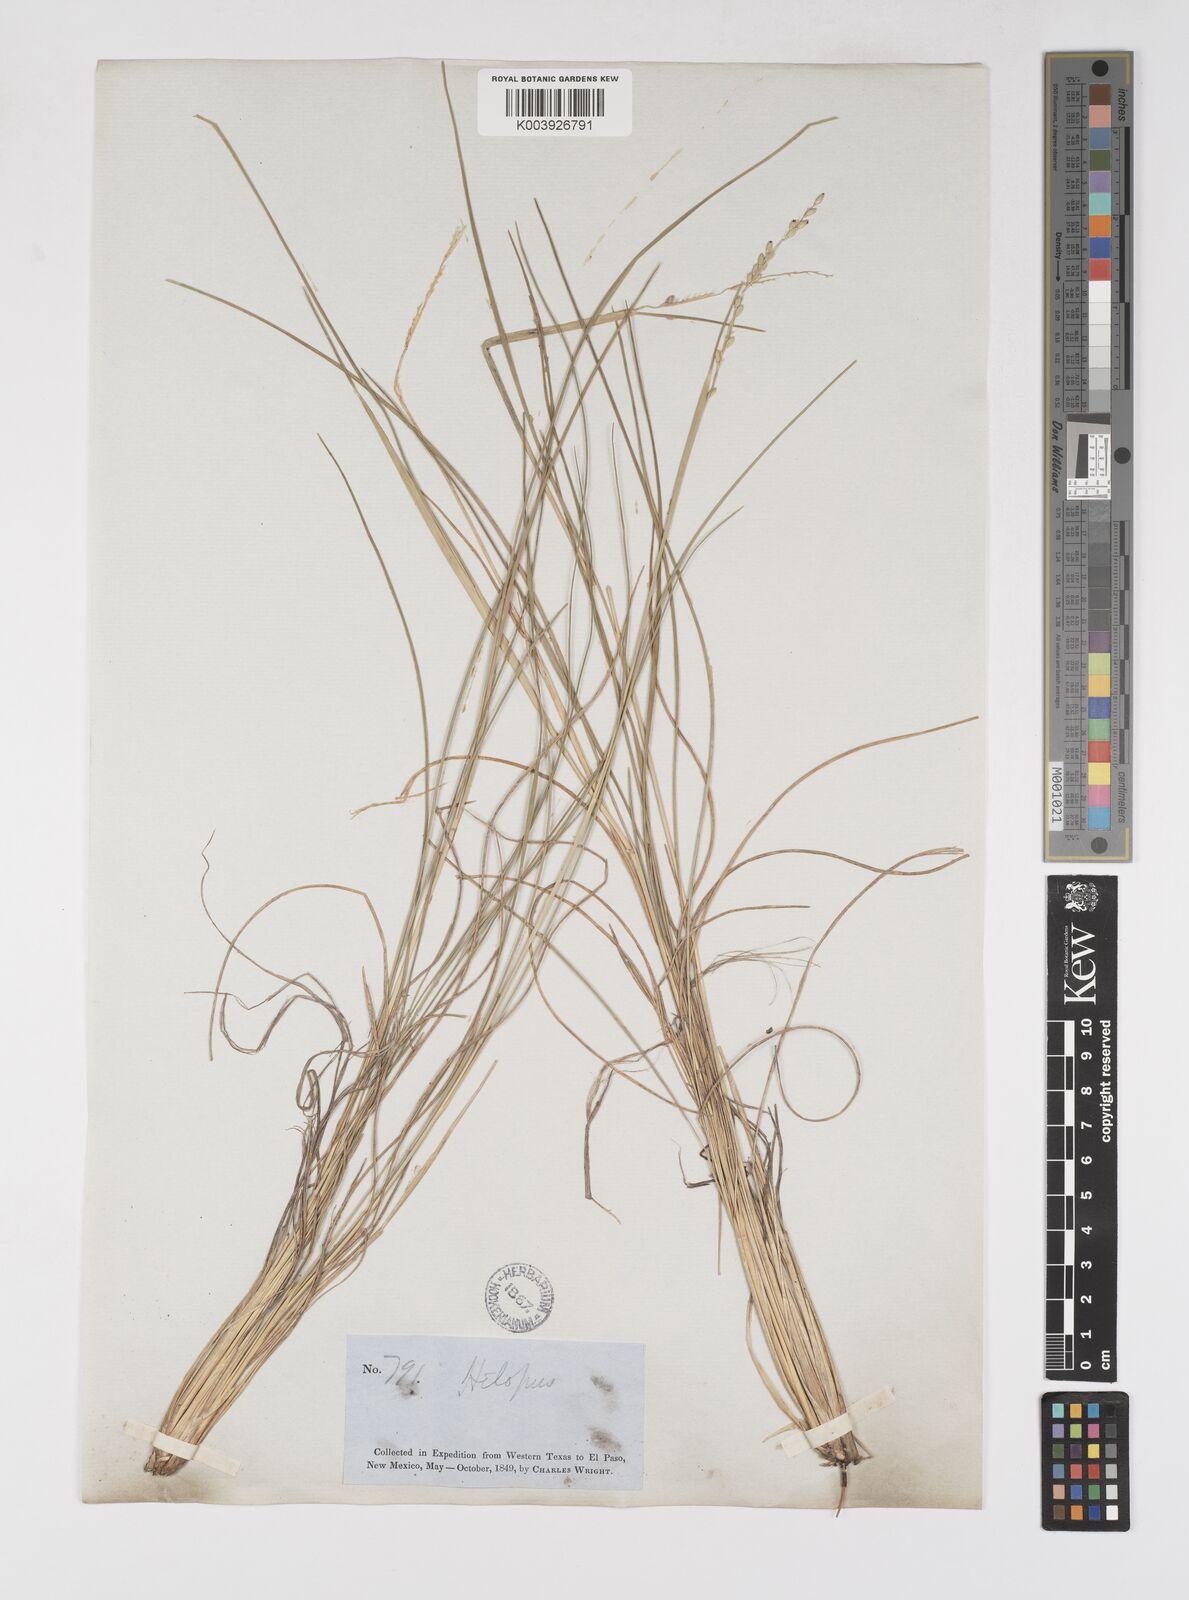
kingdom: Plantae
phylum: Tracheophyta
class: Liliopsida
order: Poales
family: Poaceae
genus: Eriochloa
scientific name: Eriochloa sericea
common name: Texas cup grass
